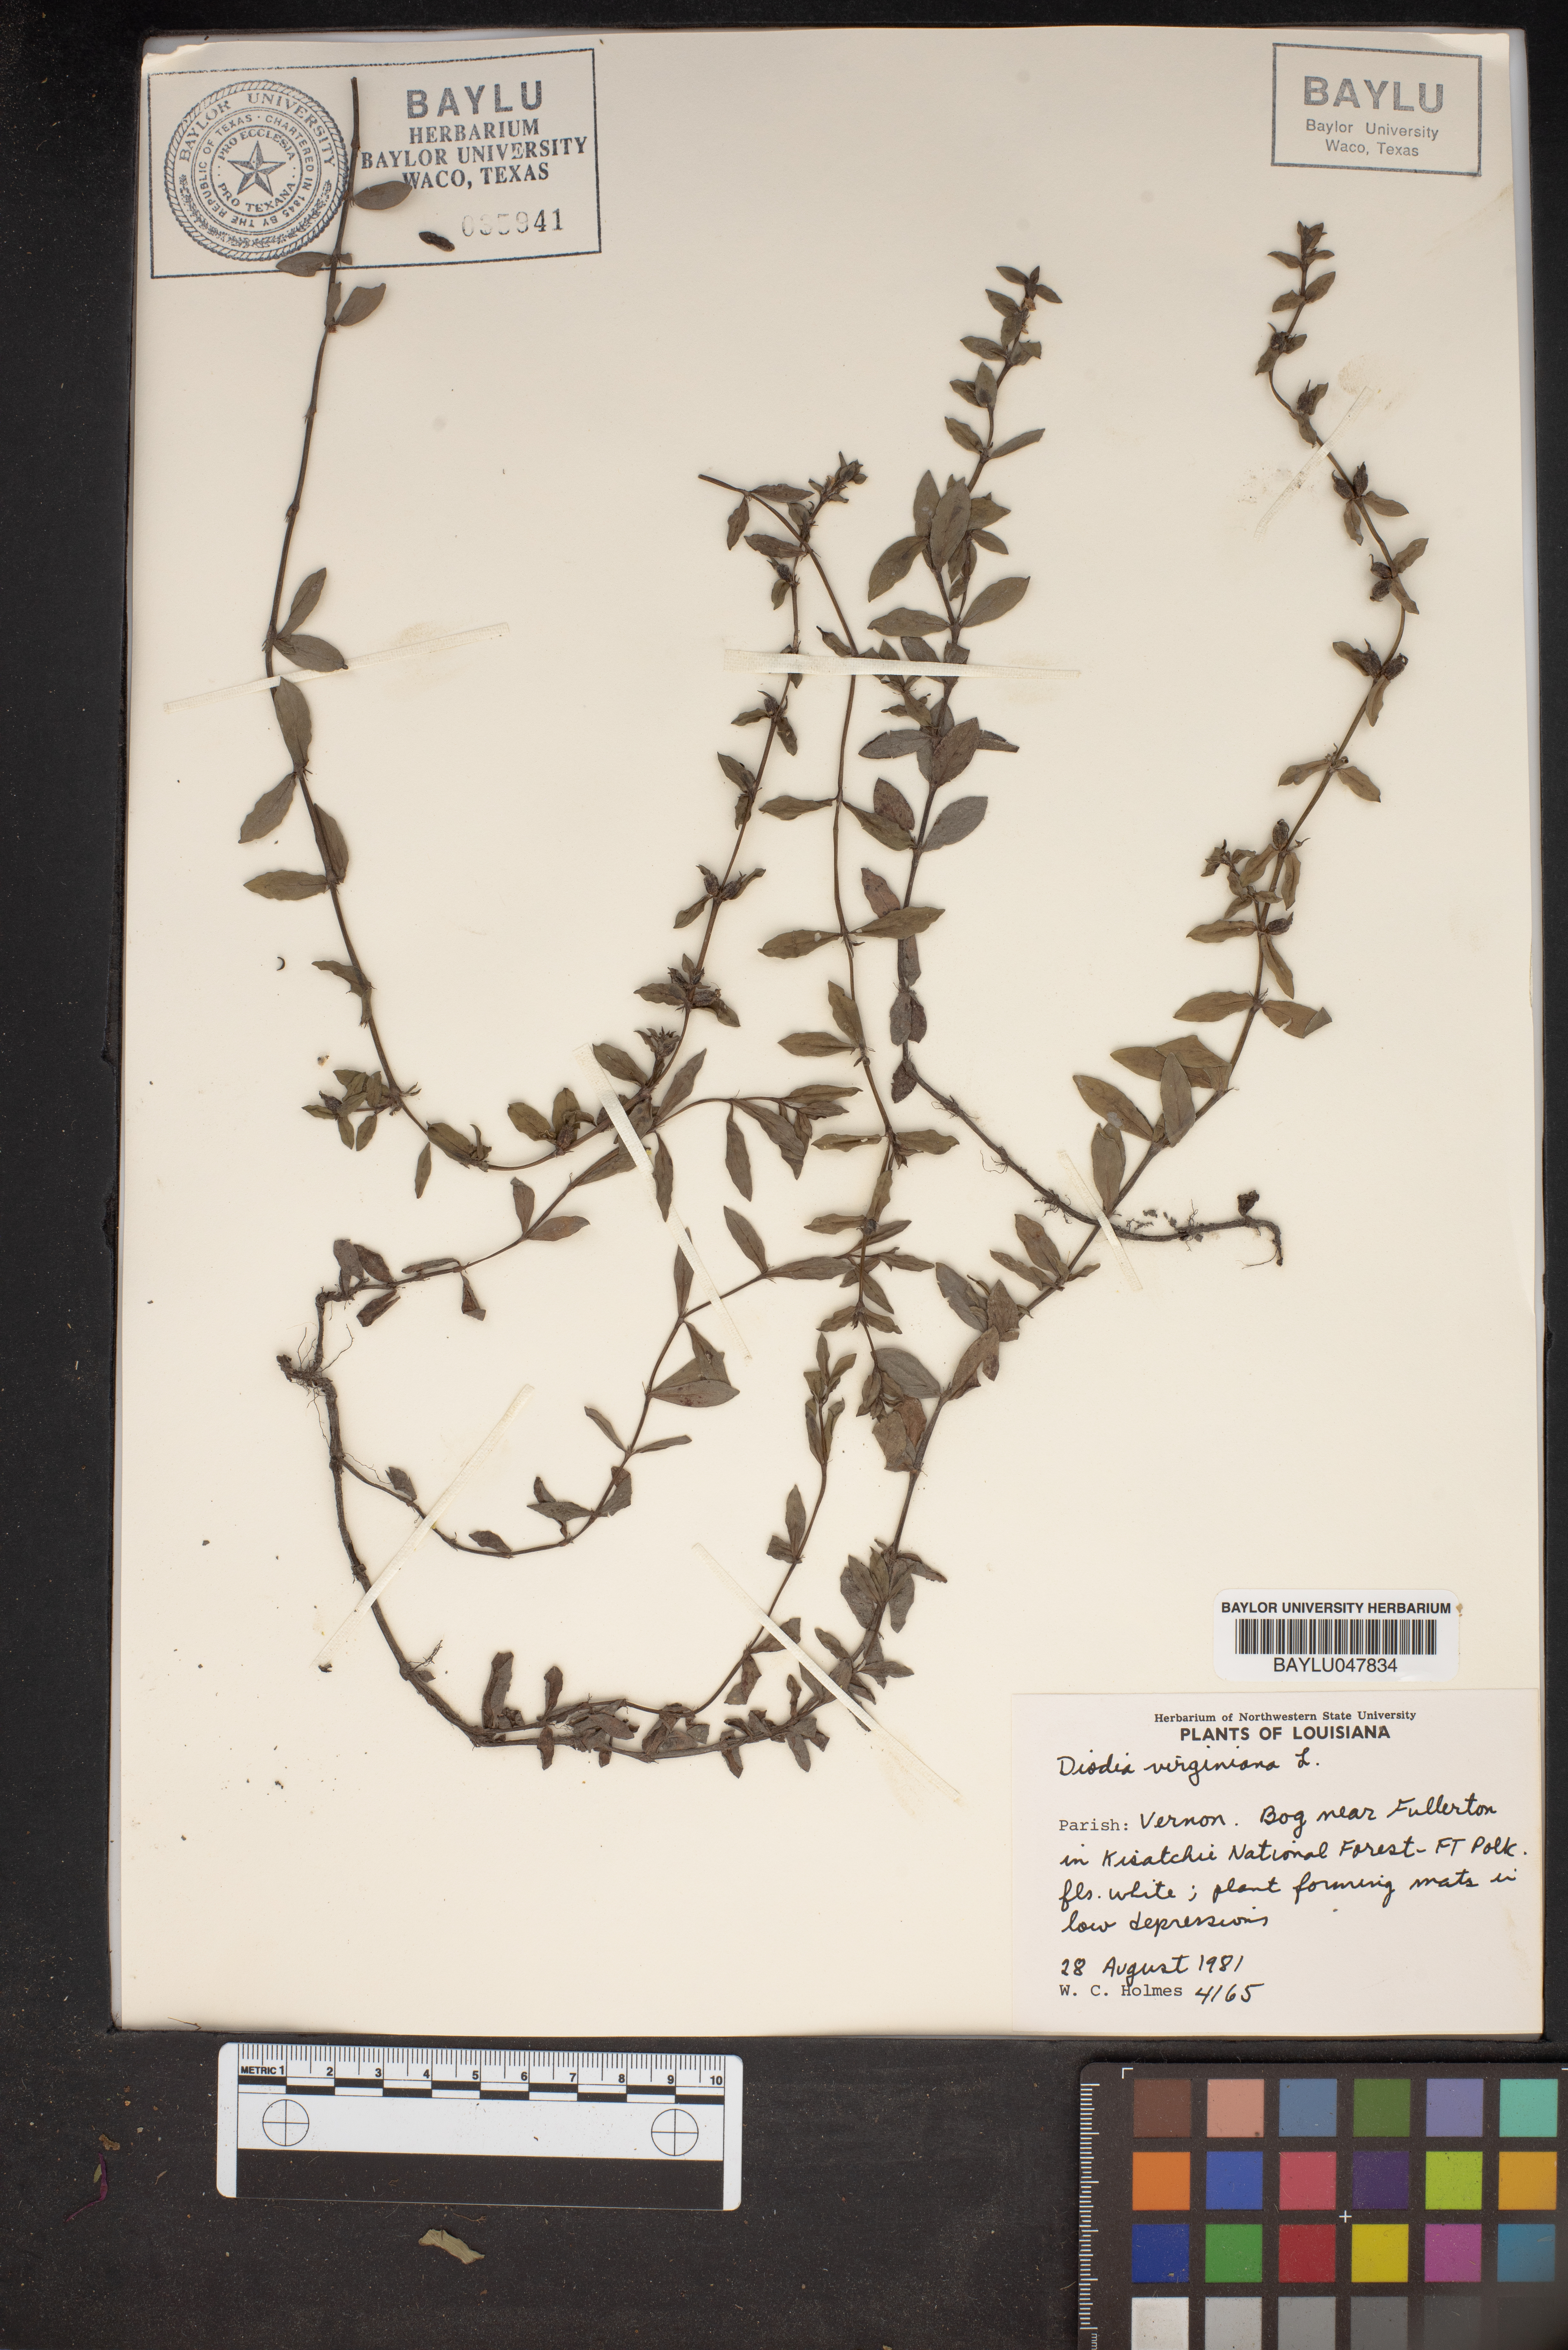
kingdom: Plantae
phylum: Tracheophyta
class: Magnoliopsida
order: Gentianales
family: Rubiaceae
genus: Diodia
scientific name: Diodia virginiana
